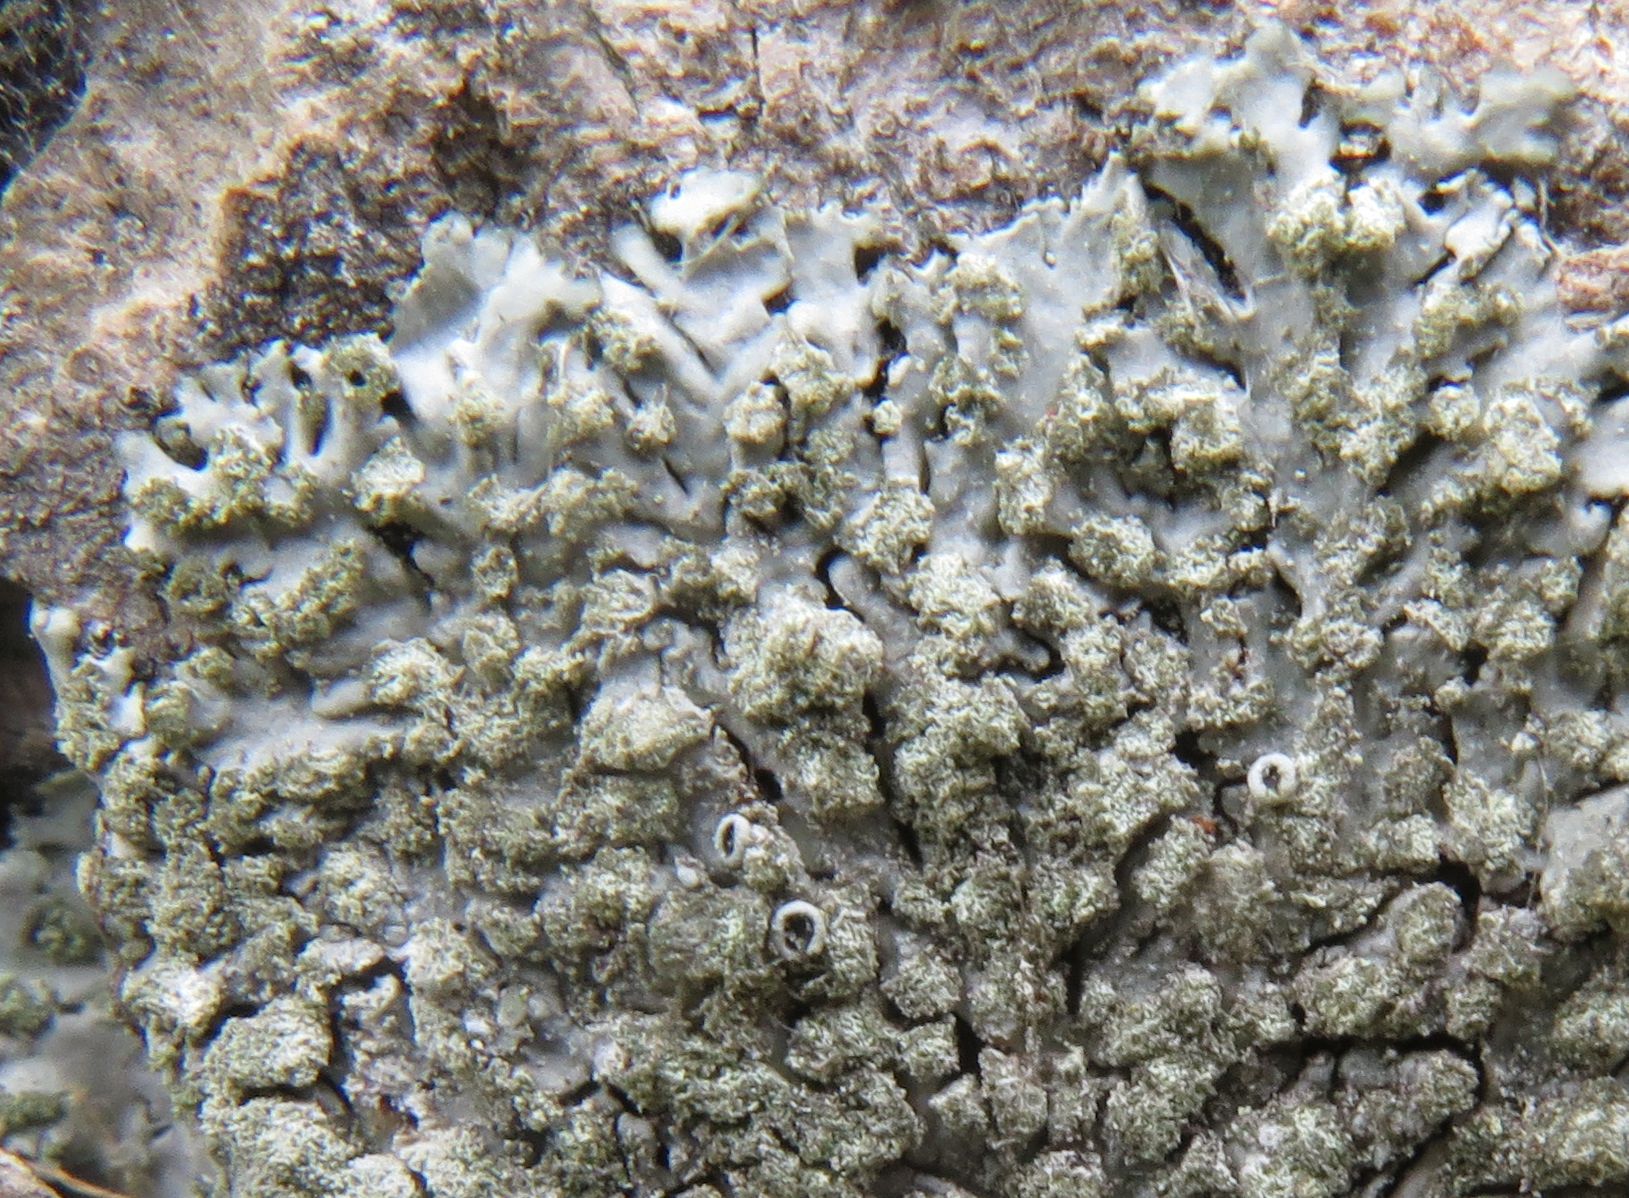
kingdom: Fungi
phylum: Ascomycota
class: Lecanoromycetes
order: Caliciales
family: Physciaceae
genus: Phaeophyscia
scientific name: Phaeophyscia orbicularis
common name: grågrøn rosetlav
